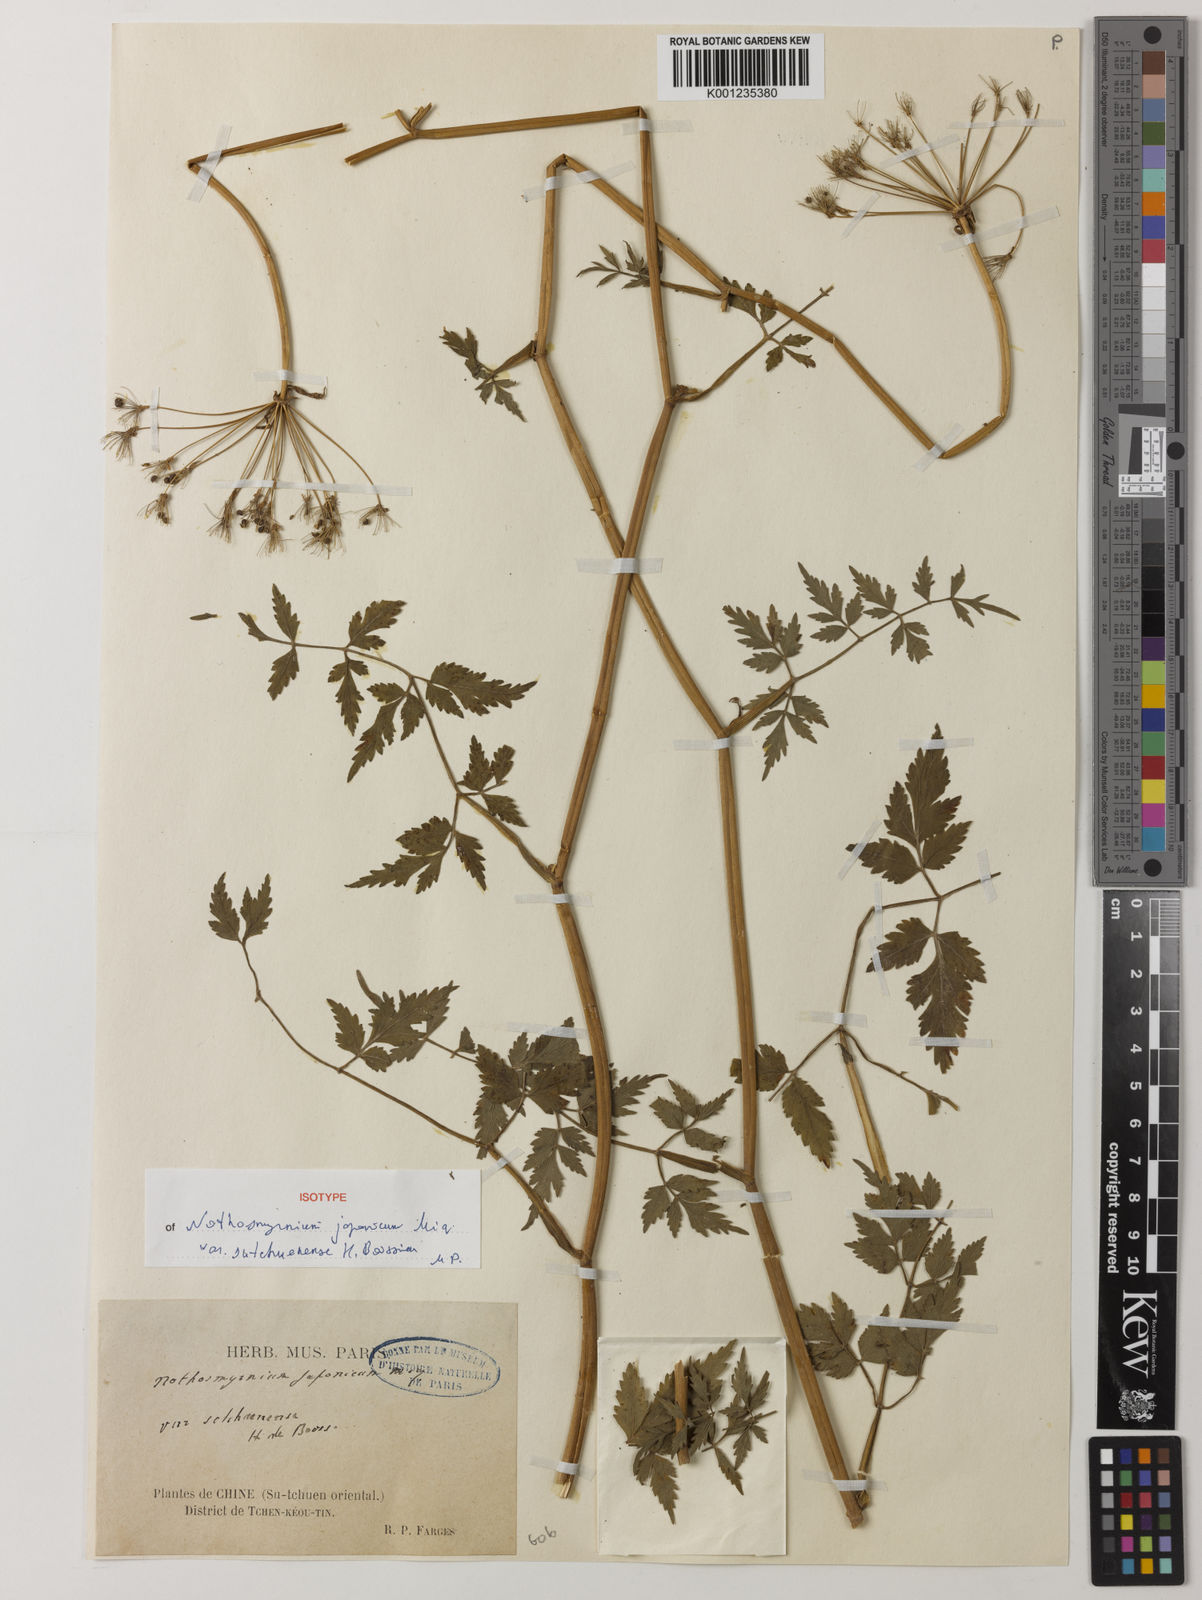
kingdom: Plantae
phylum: Tracheophyta
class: Magnoliopsida
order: Apiales
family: Apiaceae
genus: Nothosmyrnium
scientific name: Nothosmyrnium japonicum
